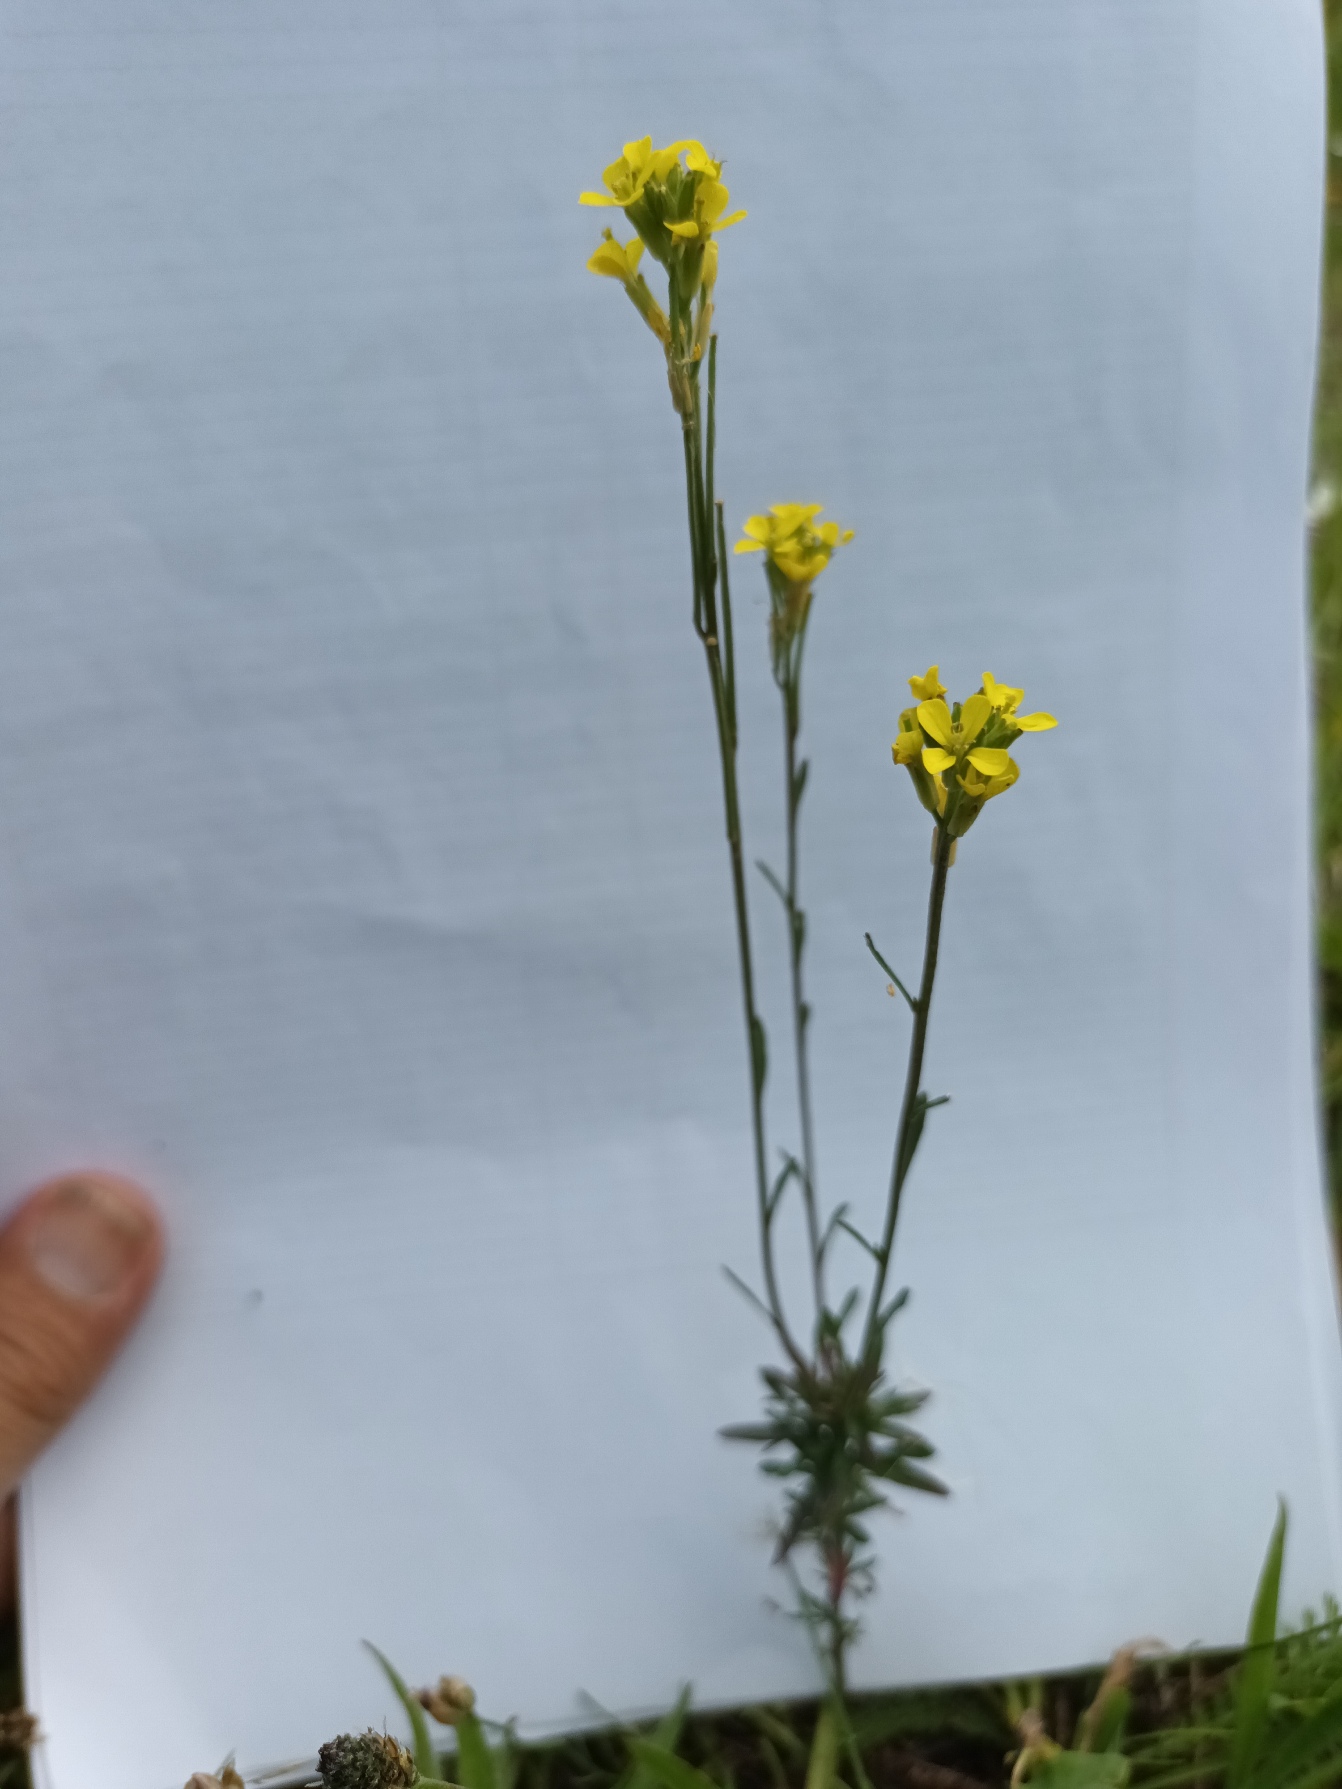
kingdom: Plantae
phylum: Tracheophyta
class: Magnoliopsida
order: Brassicales
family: Brassicaceae
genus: Erysimum
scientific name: Erysimum marschallianum
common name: Hård hjørneklap
